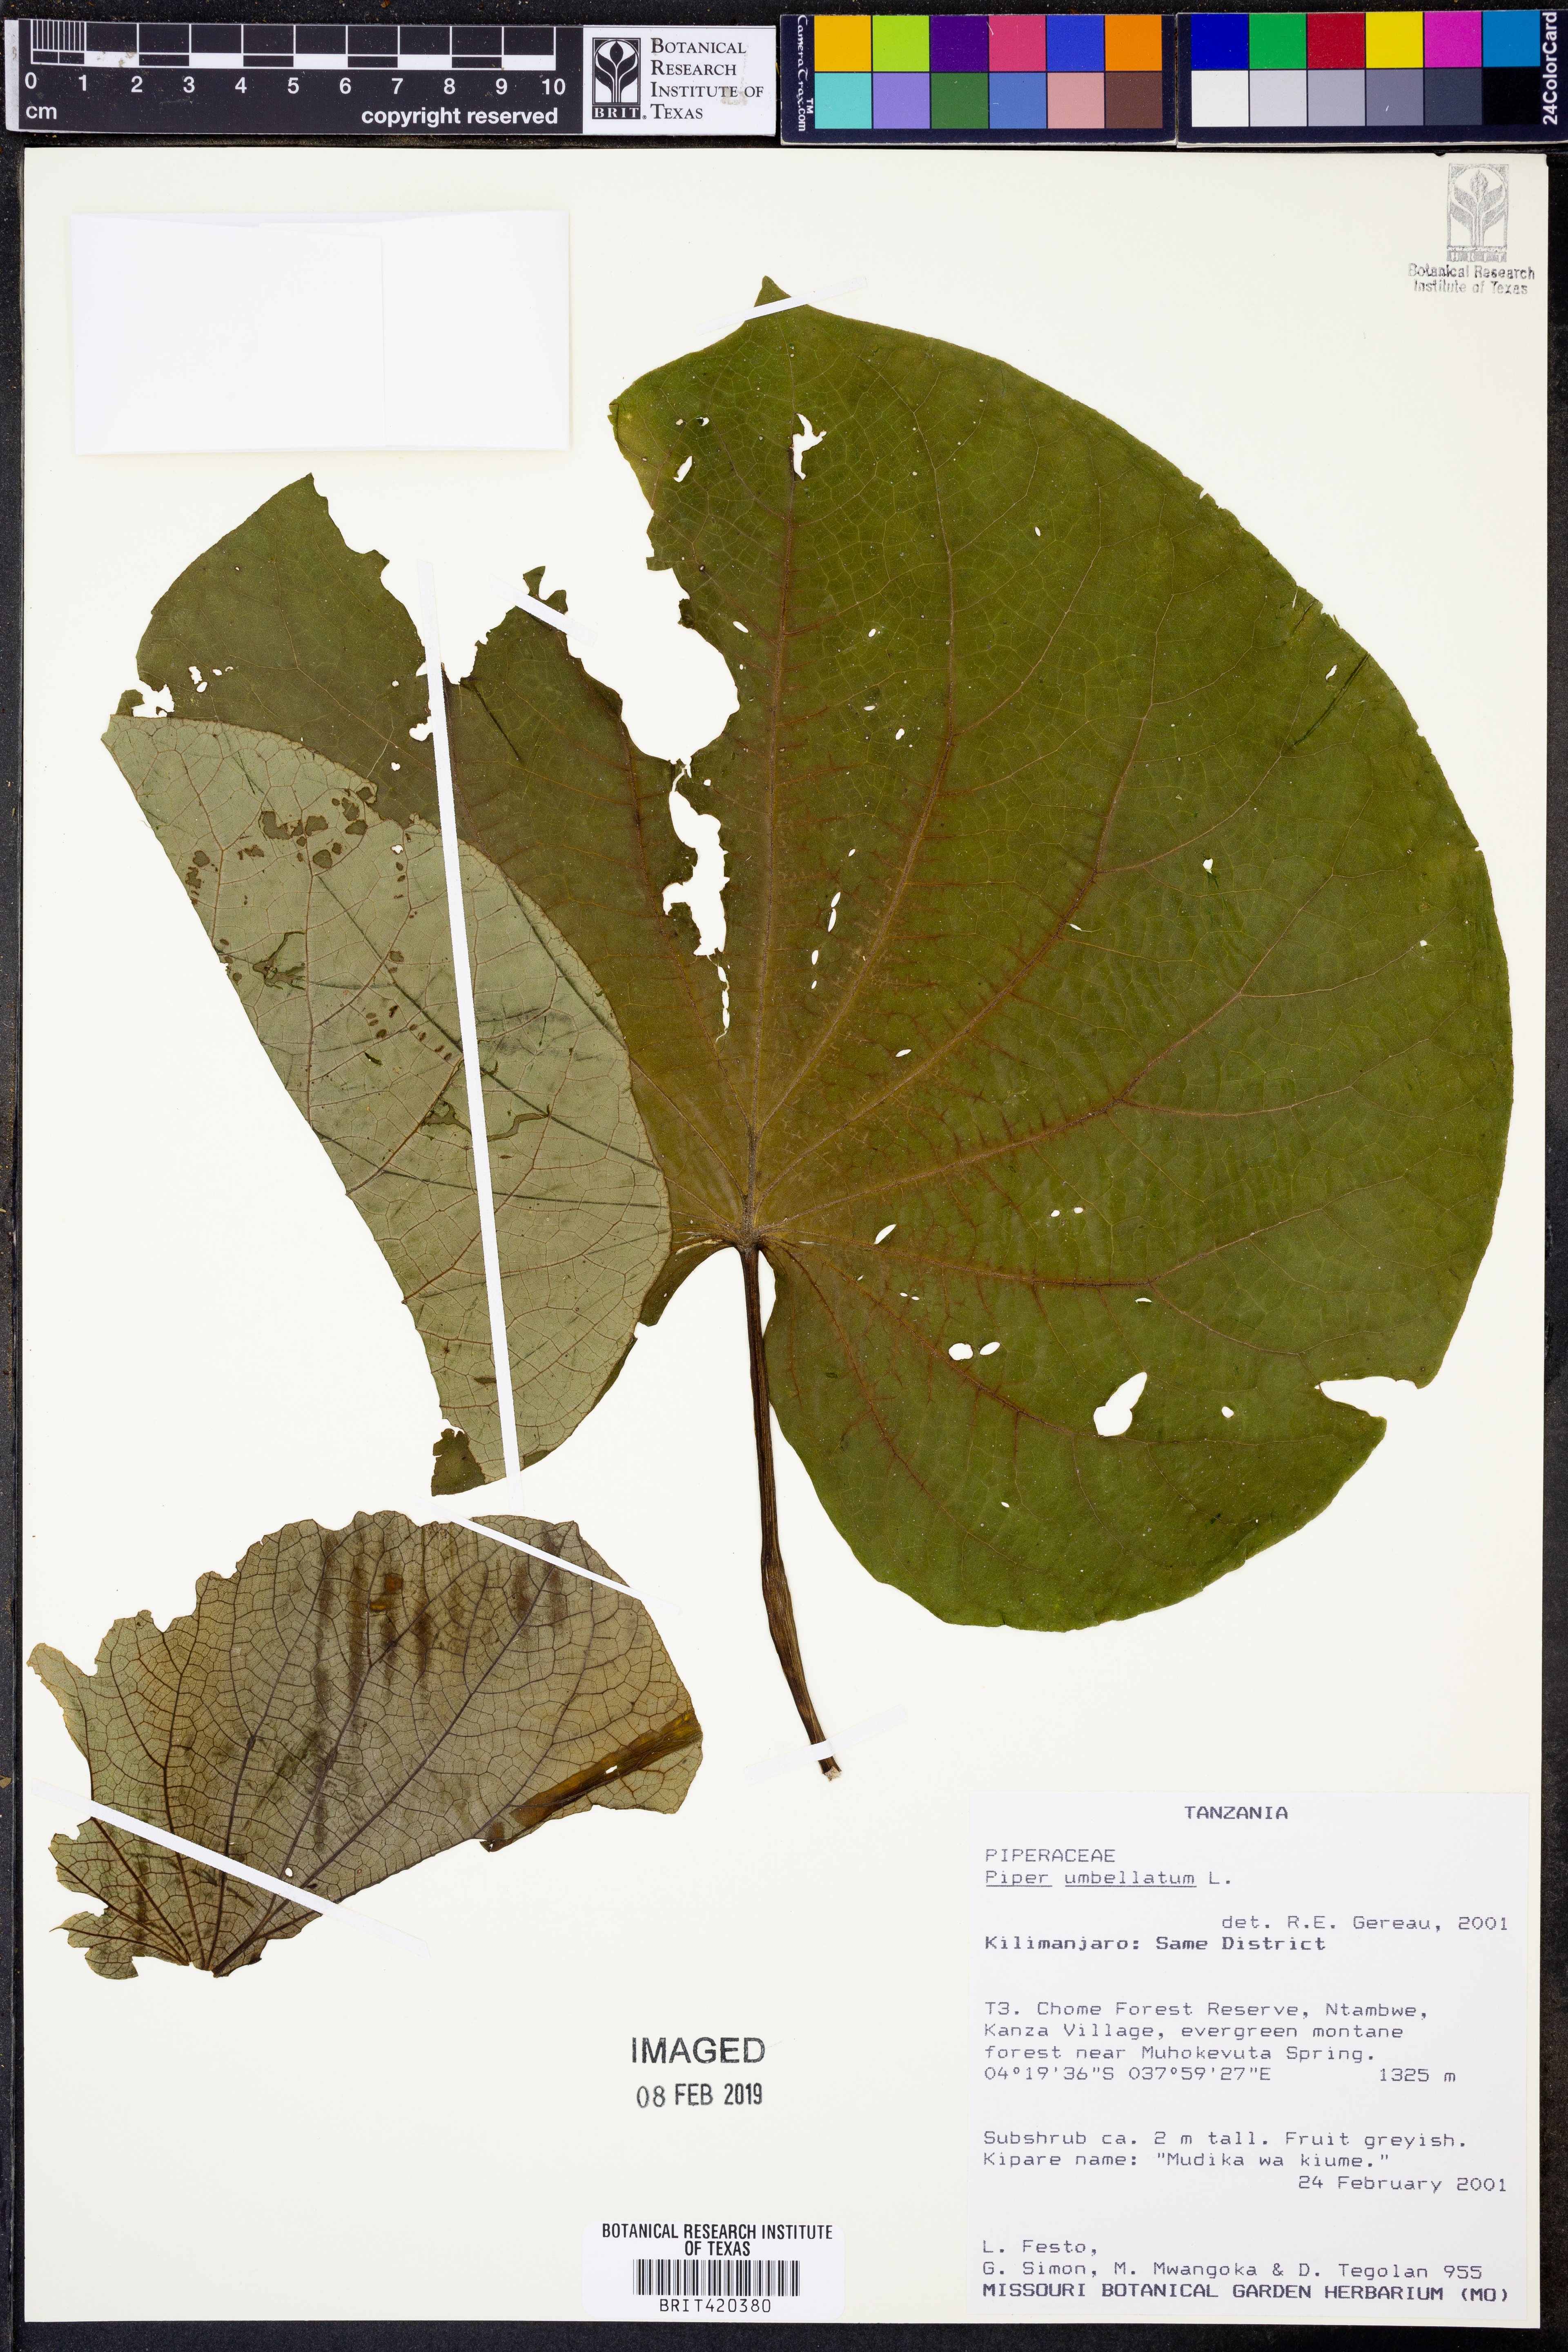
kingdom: Plantae
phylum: Tracheophyta
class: Magnoliopsida
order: Piperales
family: Piperaceae
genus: Piper
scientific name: Piper umbellatum
